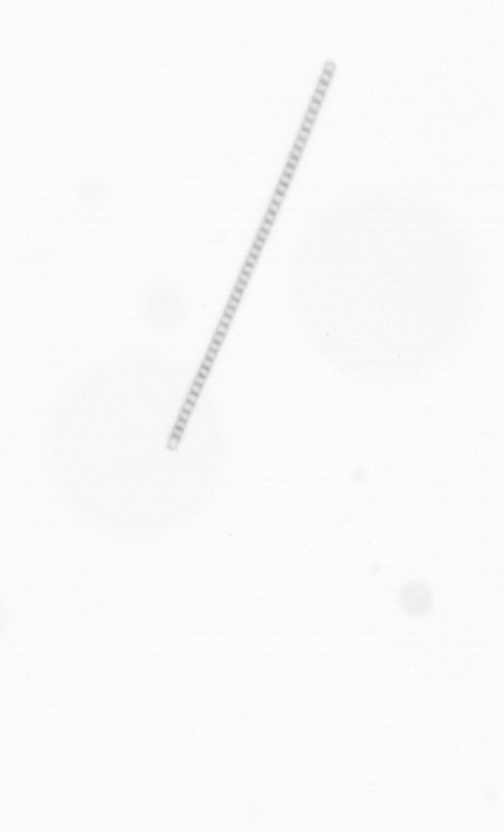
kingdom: Chromista
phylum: Ochrophyta
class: Bacillariophyceae
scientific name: Bacillariophyceae
